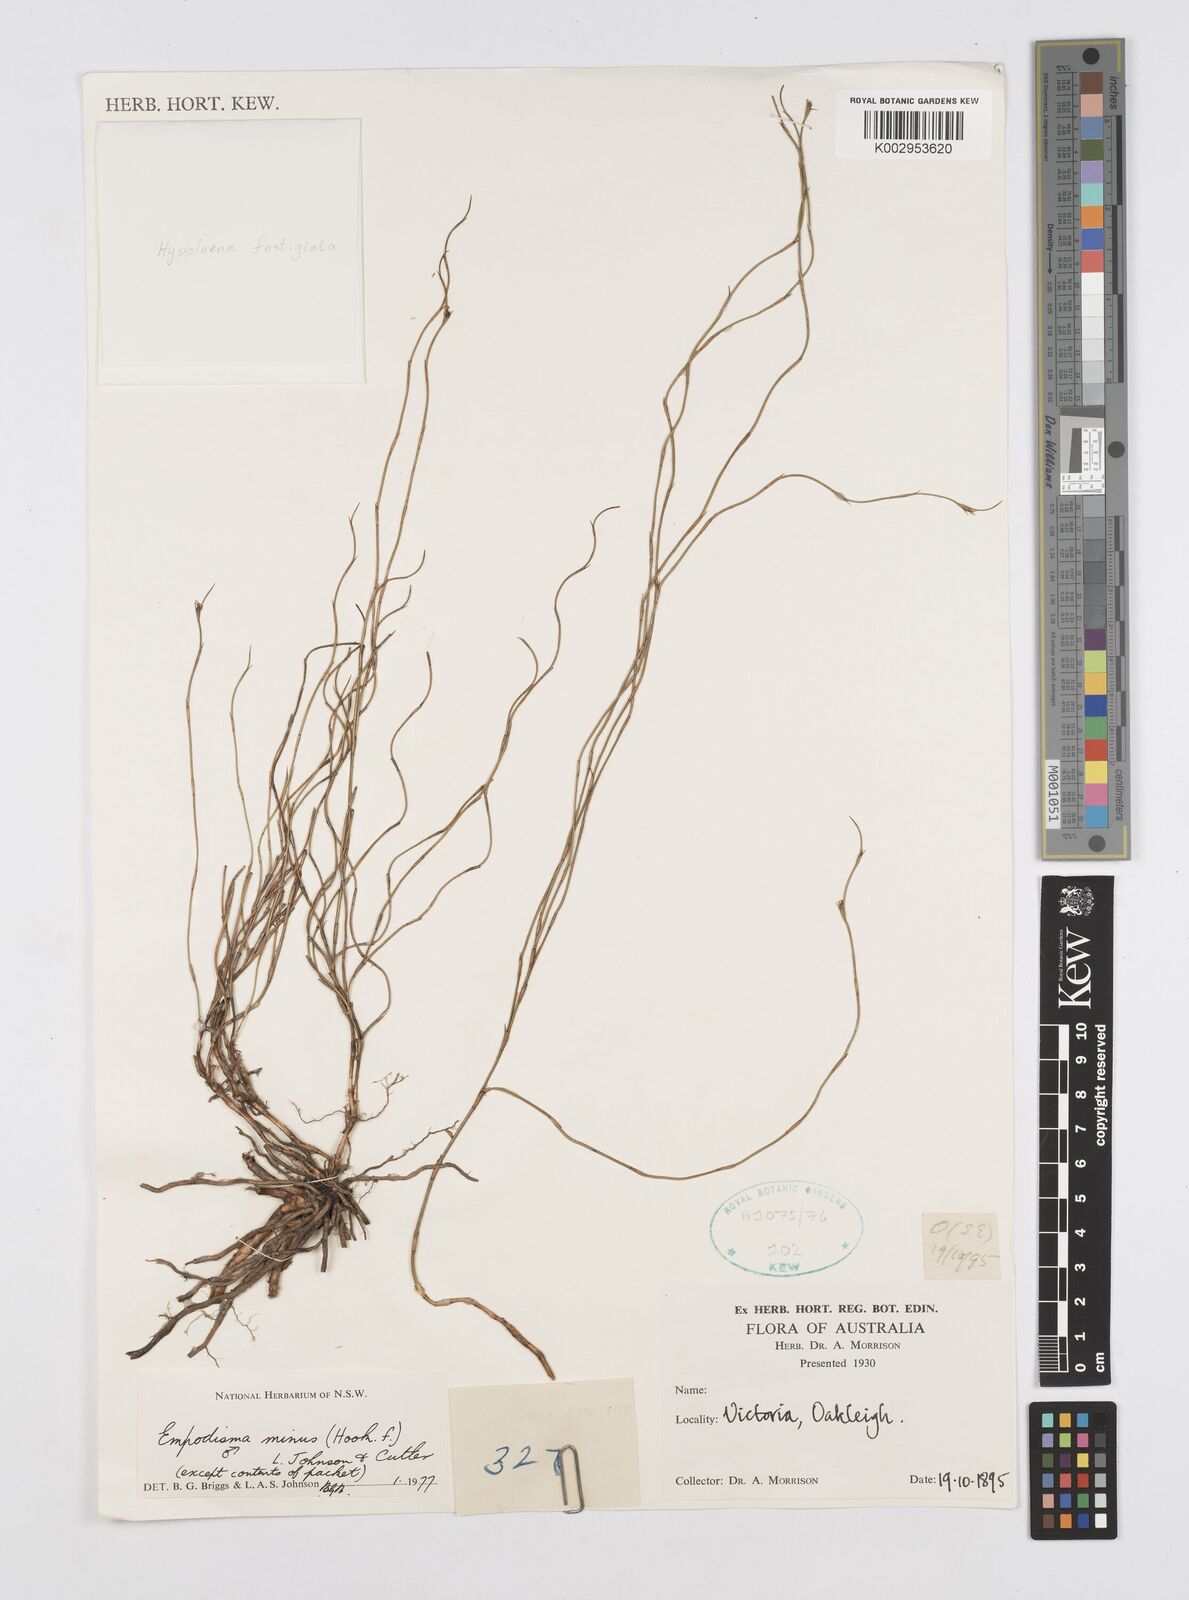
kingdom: Plantae
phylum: Tracheophyta
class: Liliopsida
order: Poales
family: Restionaceae
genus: Empodisma
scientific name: Empodisma minus
